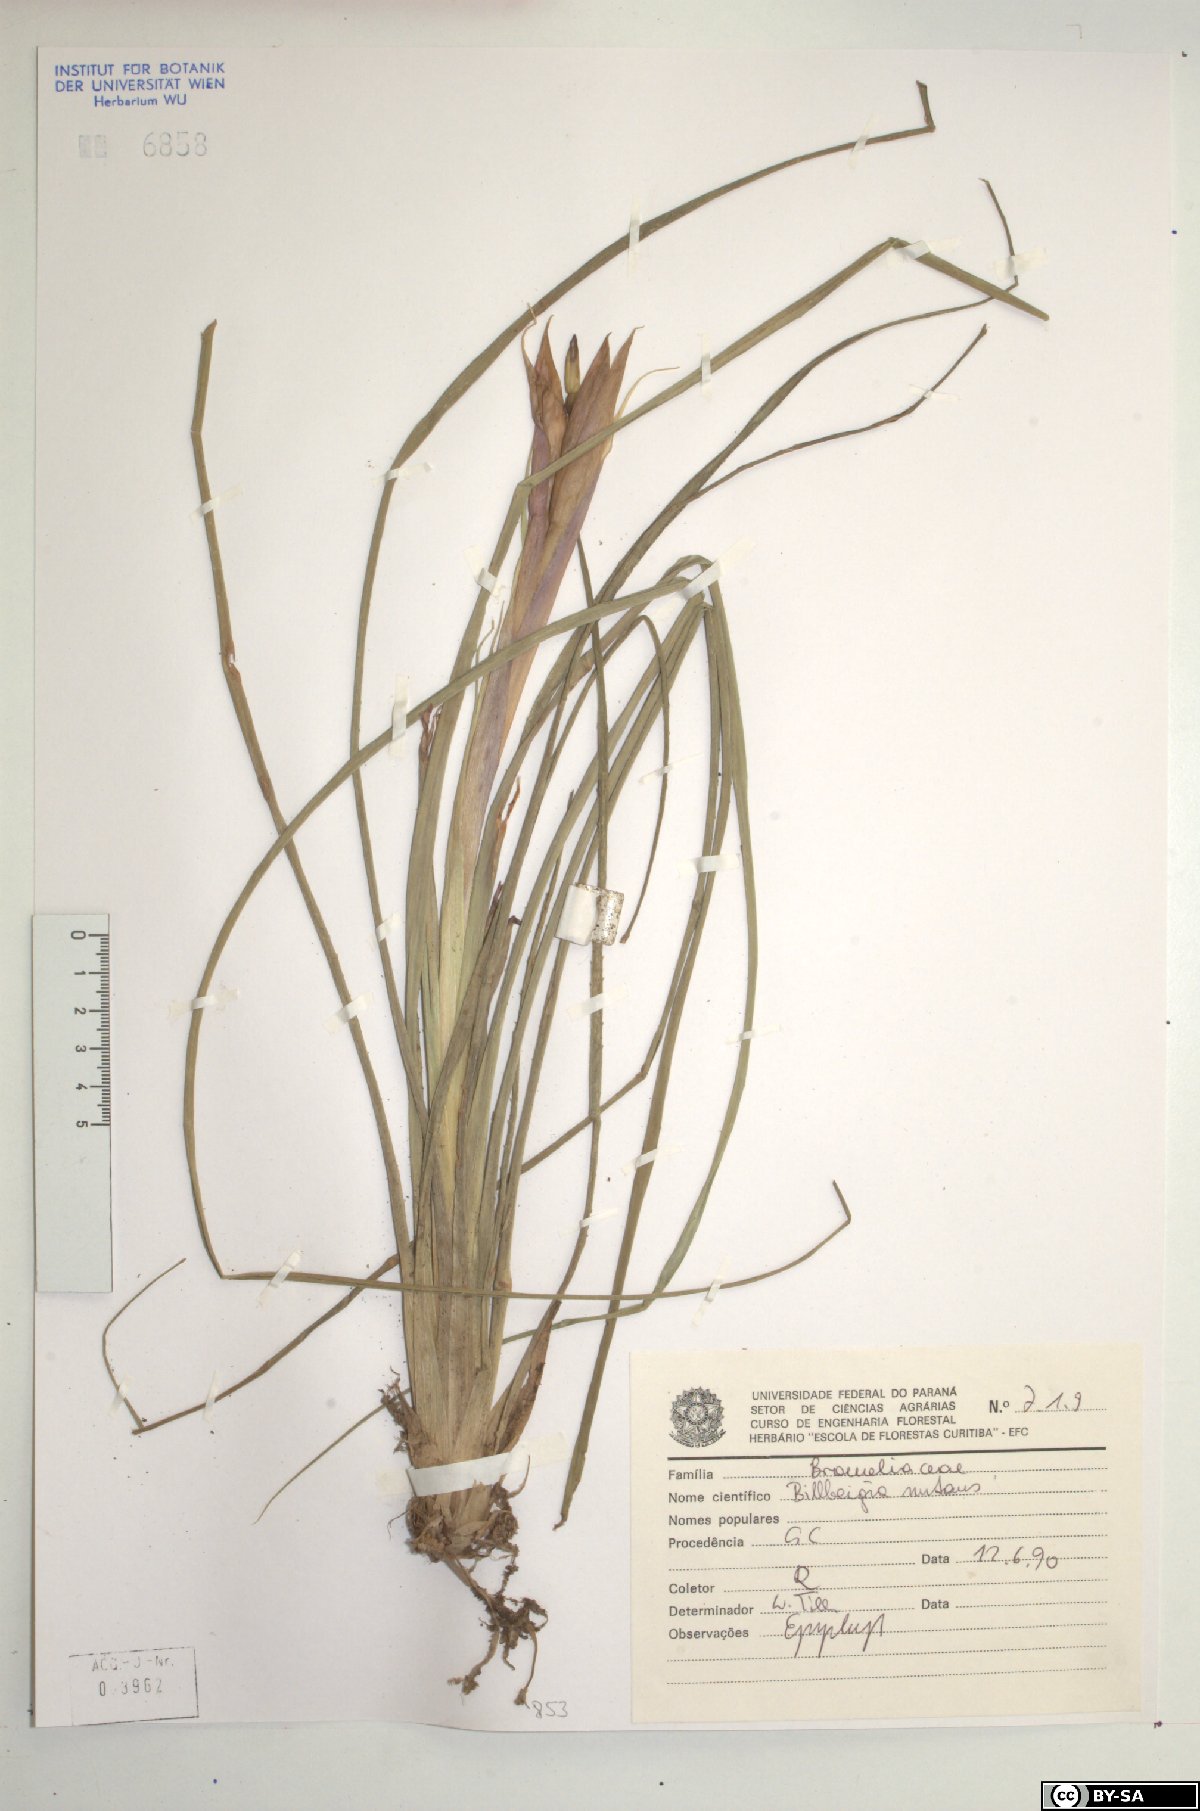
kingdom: Plantae
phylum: Tracheophyta
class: Liliopsida
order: Poales
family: Bromeliaceae
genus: Billbergia
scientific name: Billbergia nutans
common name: Friendship-plant
